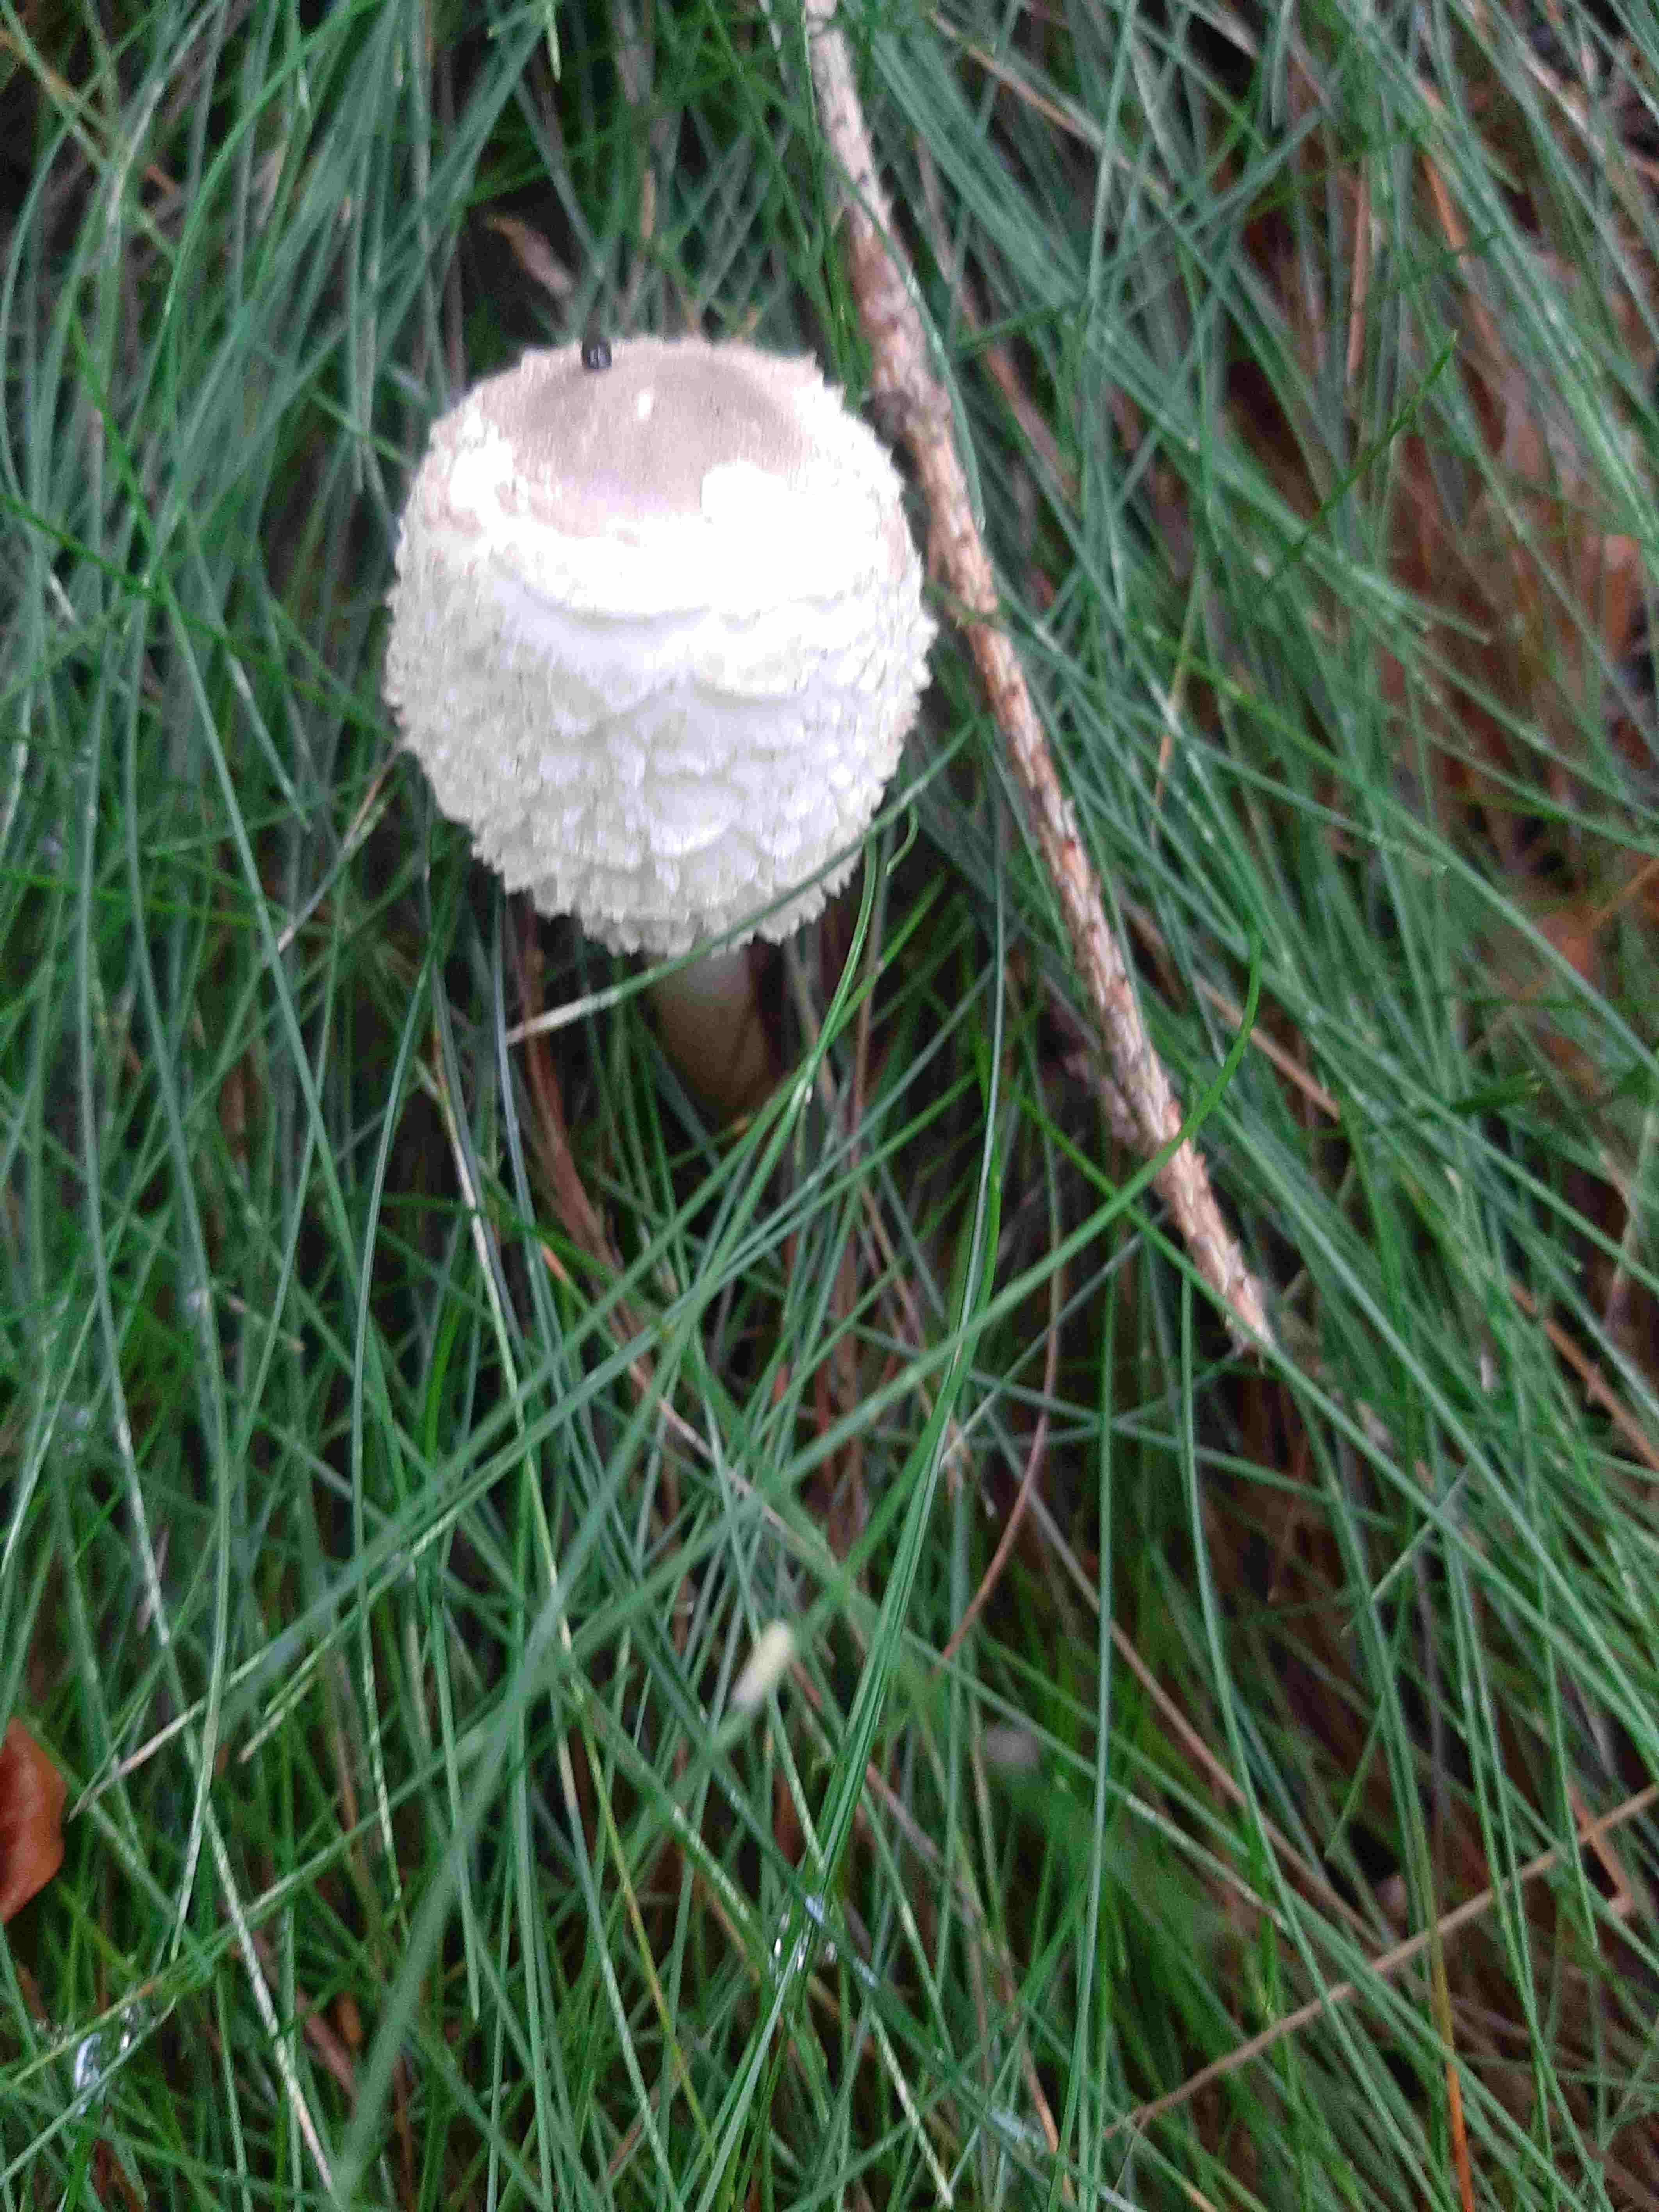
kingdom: Fungi
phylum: Basidiomycota
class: Agaricomycetes
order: Agaricales
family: Agaricaceae
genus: Leucoagaricus
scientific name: Leucoagaricus nympharum
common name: gran-silkehat
